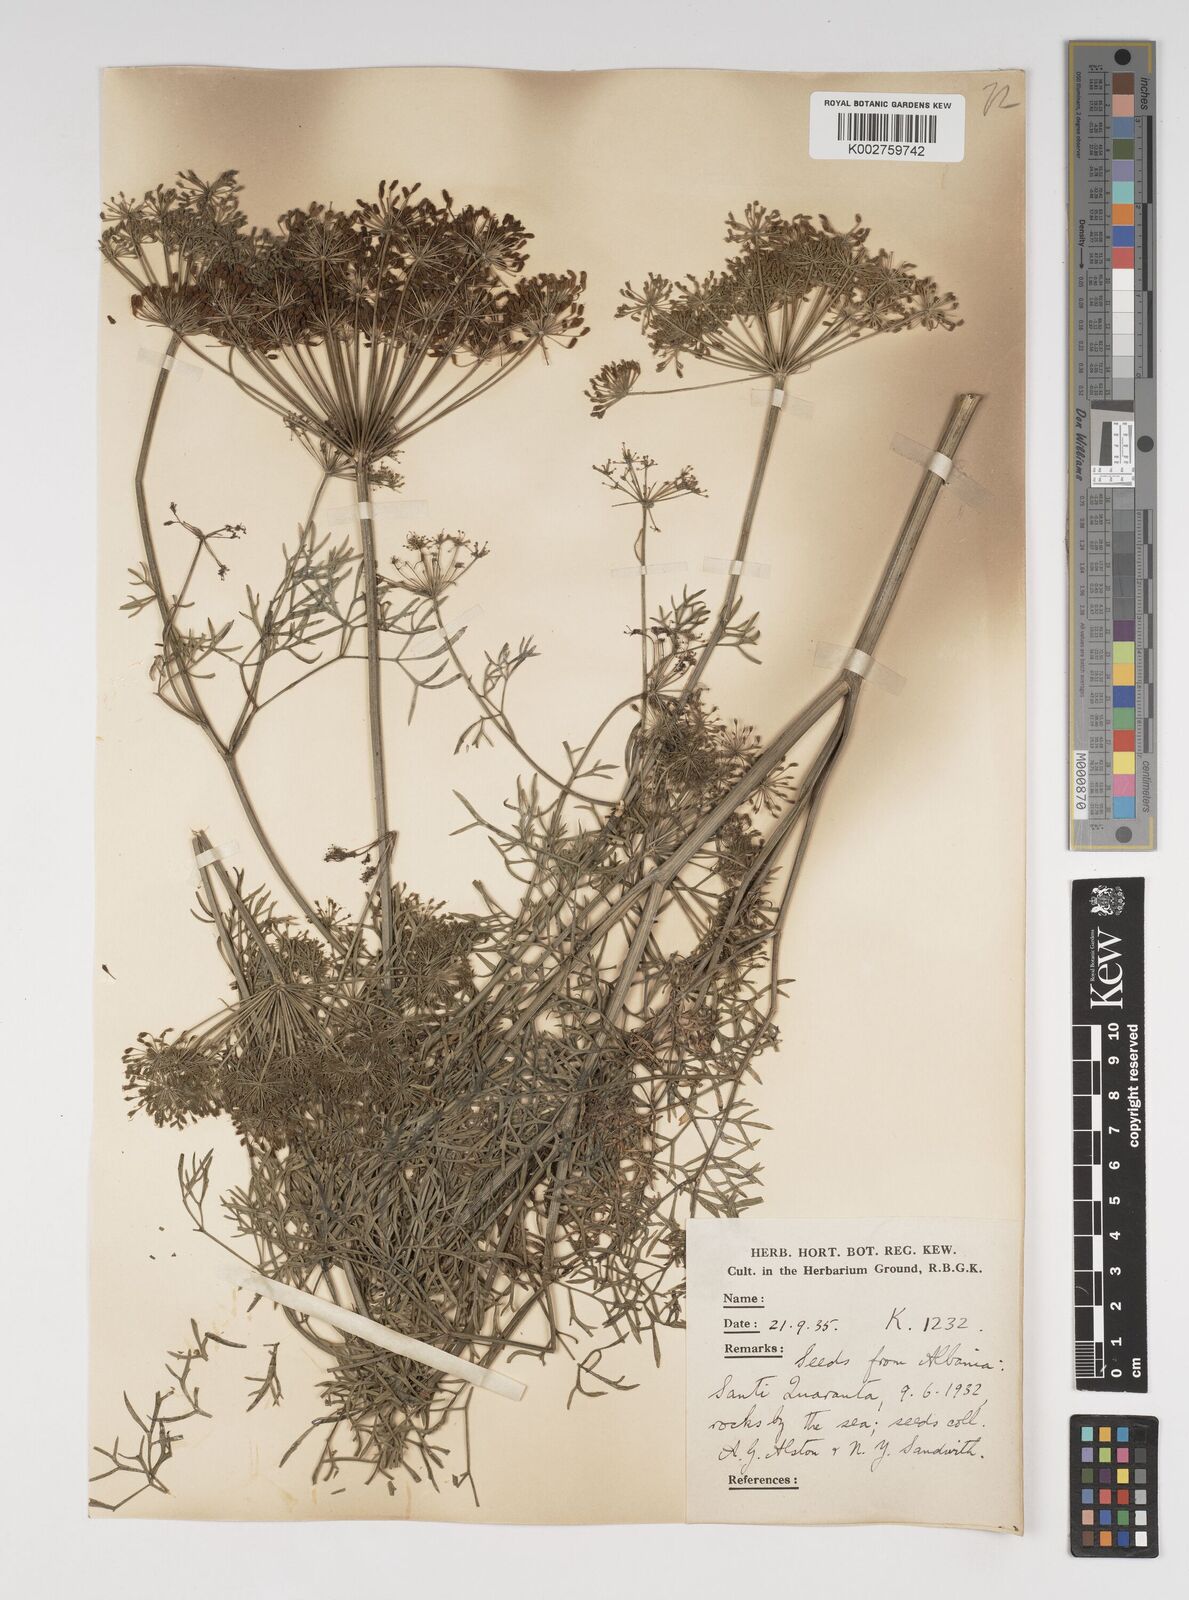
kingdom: Plantae
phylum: Tracheophyta
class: Magnoliopsida
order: Apiales
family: Apiaceae
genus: Katapsuxis
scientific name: Katapsuxis silaifolia
